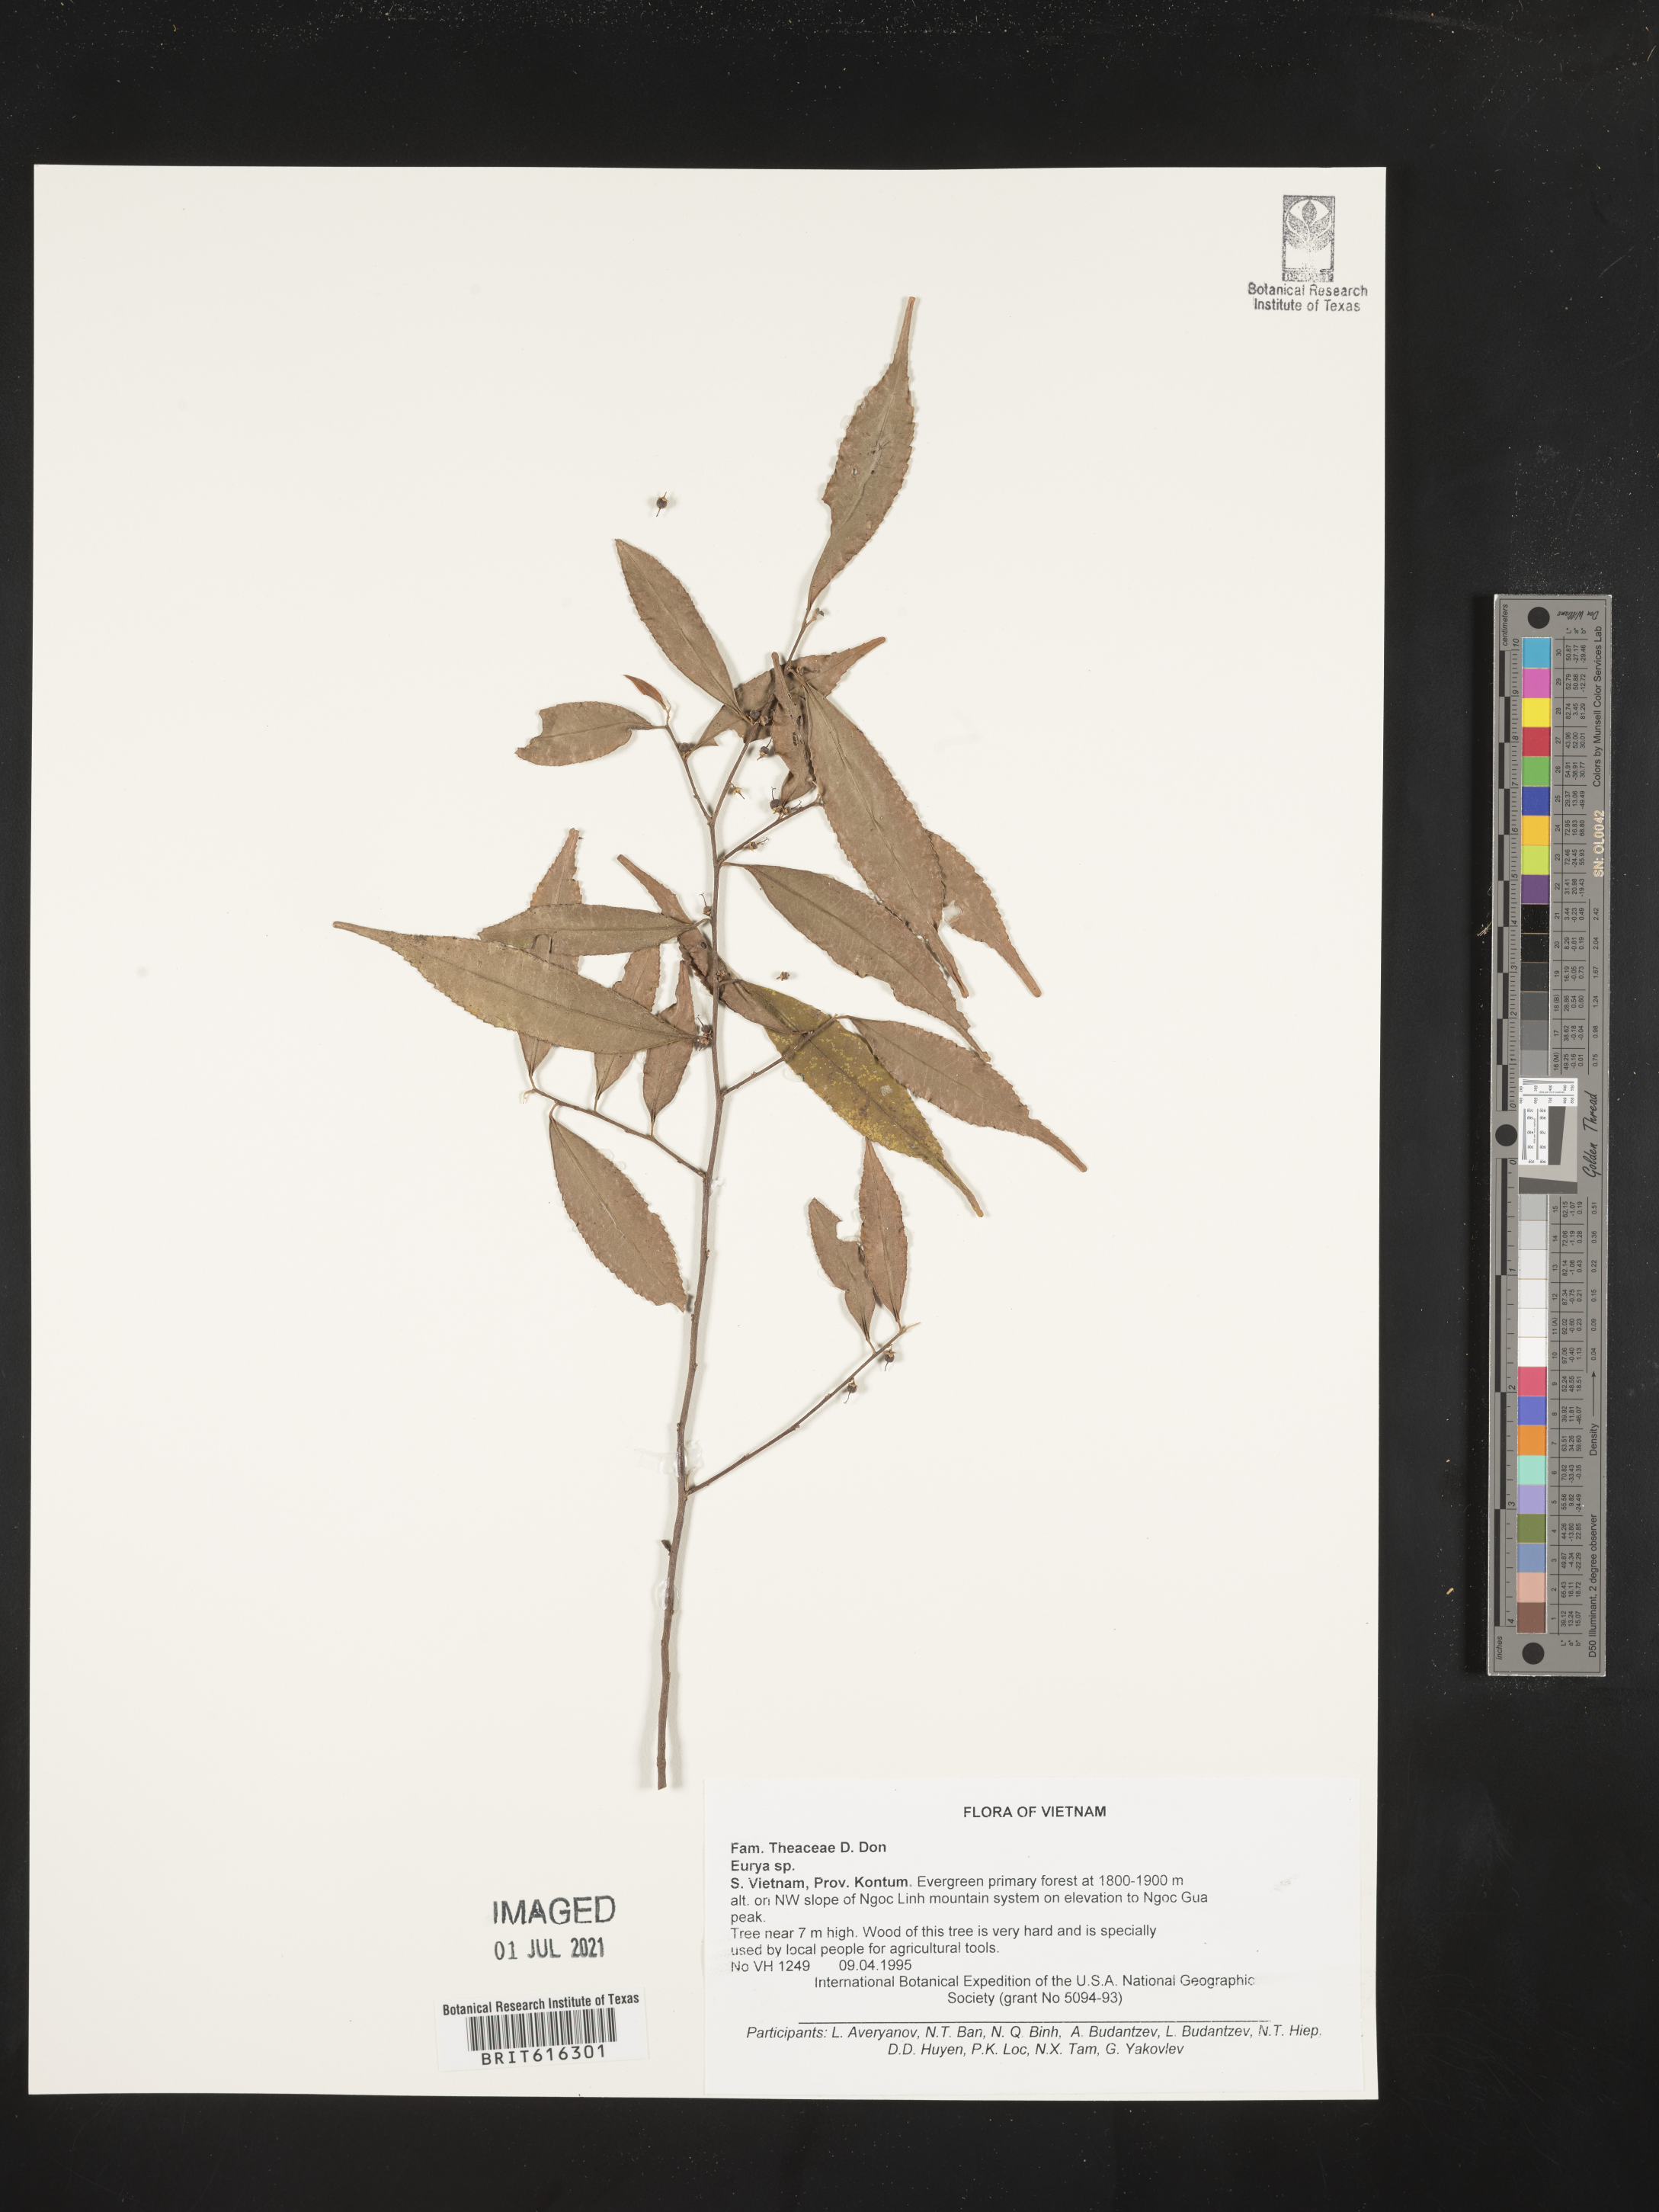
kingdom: Plantae
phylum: Tracheophyta
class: Magnoliopsida
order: Ericales
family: Pentaphylacaceae
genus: Eurya
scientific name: Eurya
